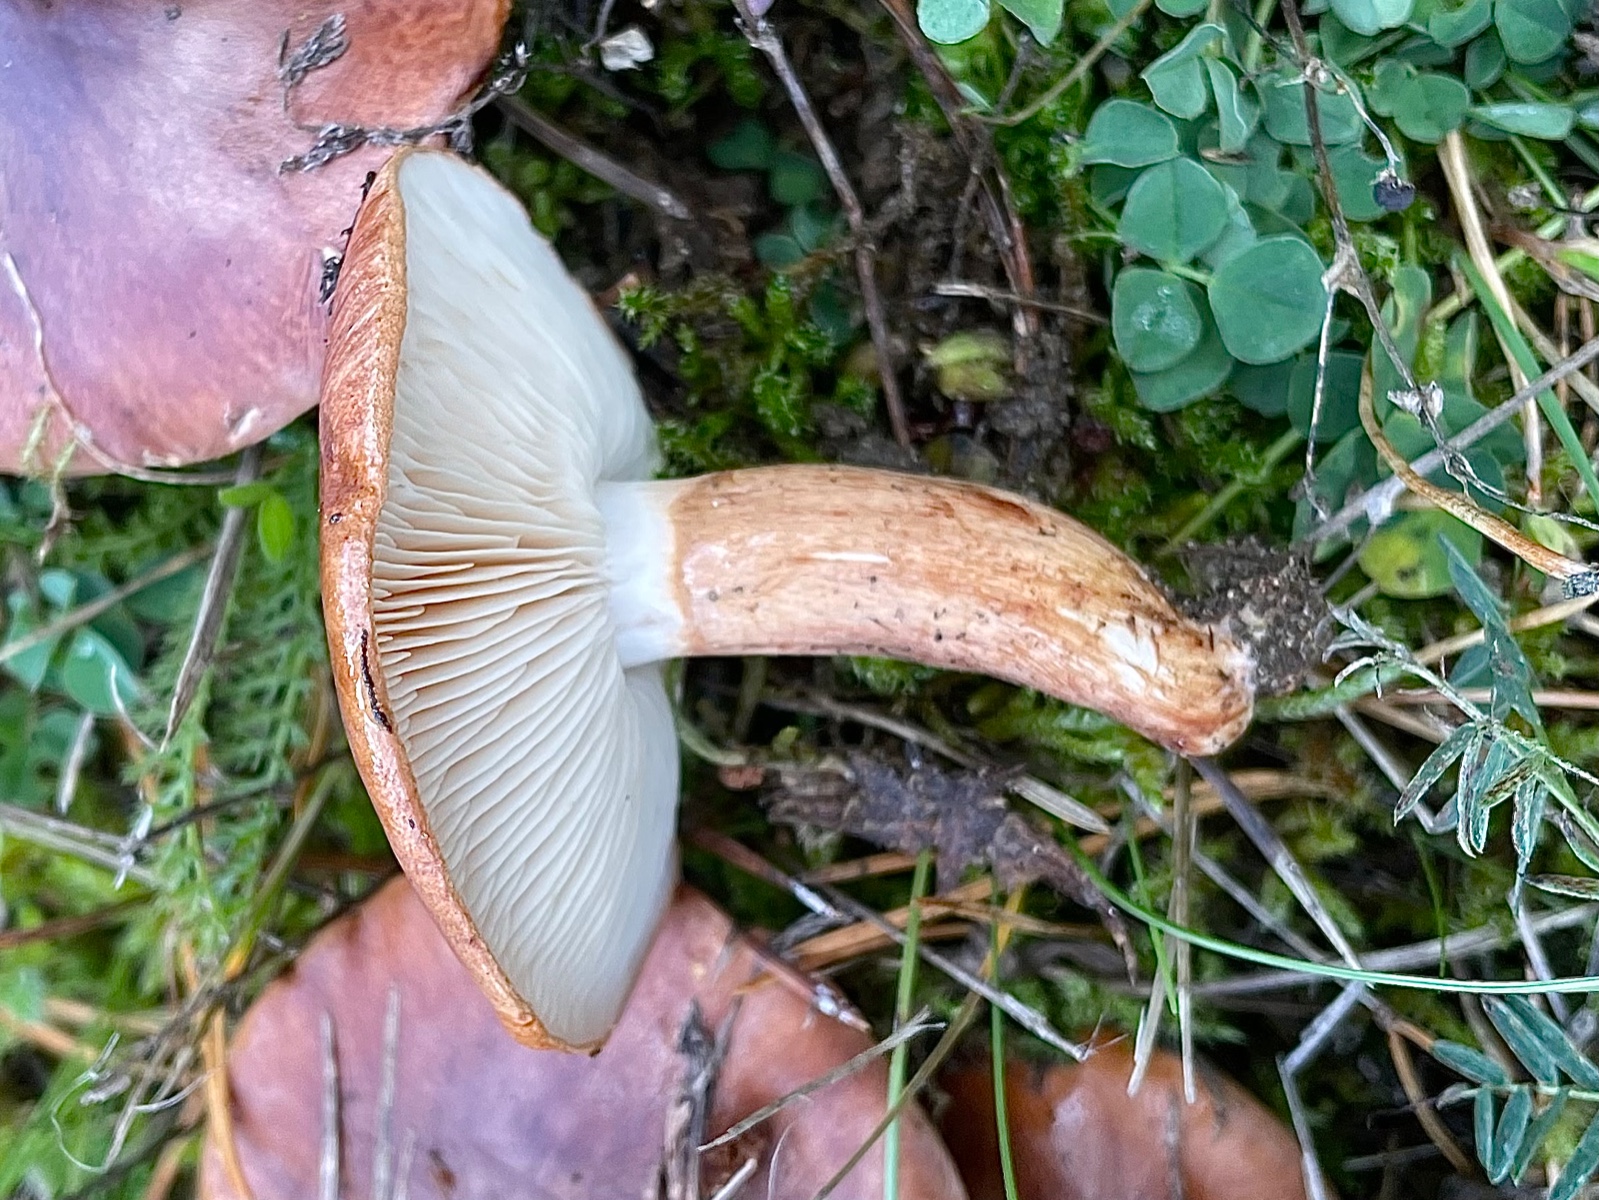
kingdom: Fungi
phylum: Basidiomycota
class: Agaricomycetes
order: Agaricales
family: Tricholomataceae
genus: Tricholoma
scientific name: Tricholoma fracticum
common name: hvidhalset ridderhat
